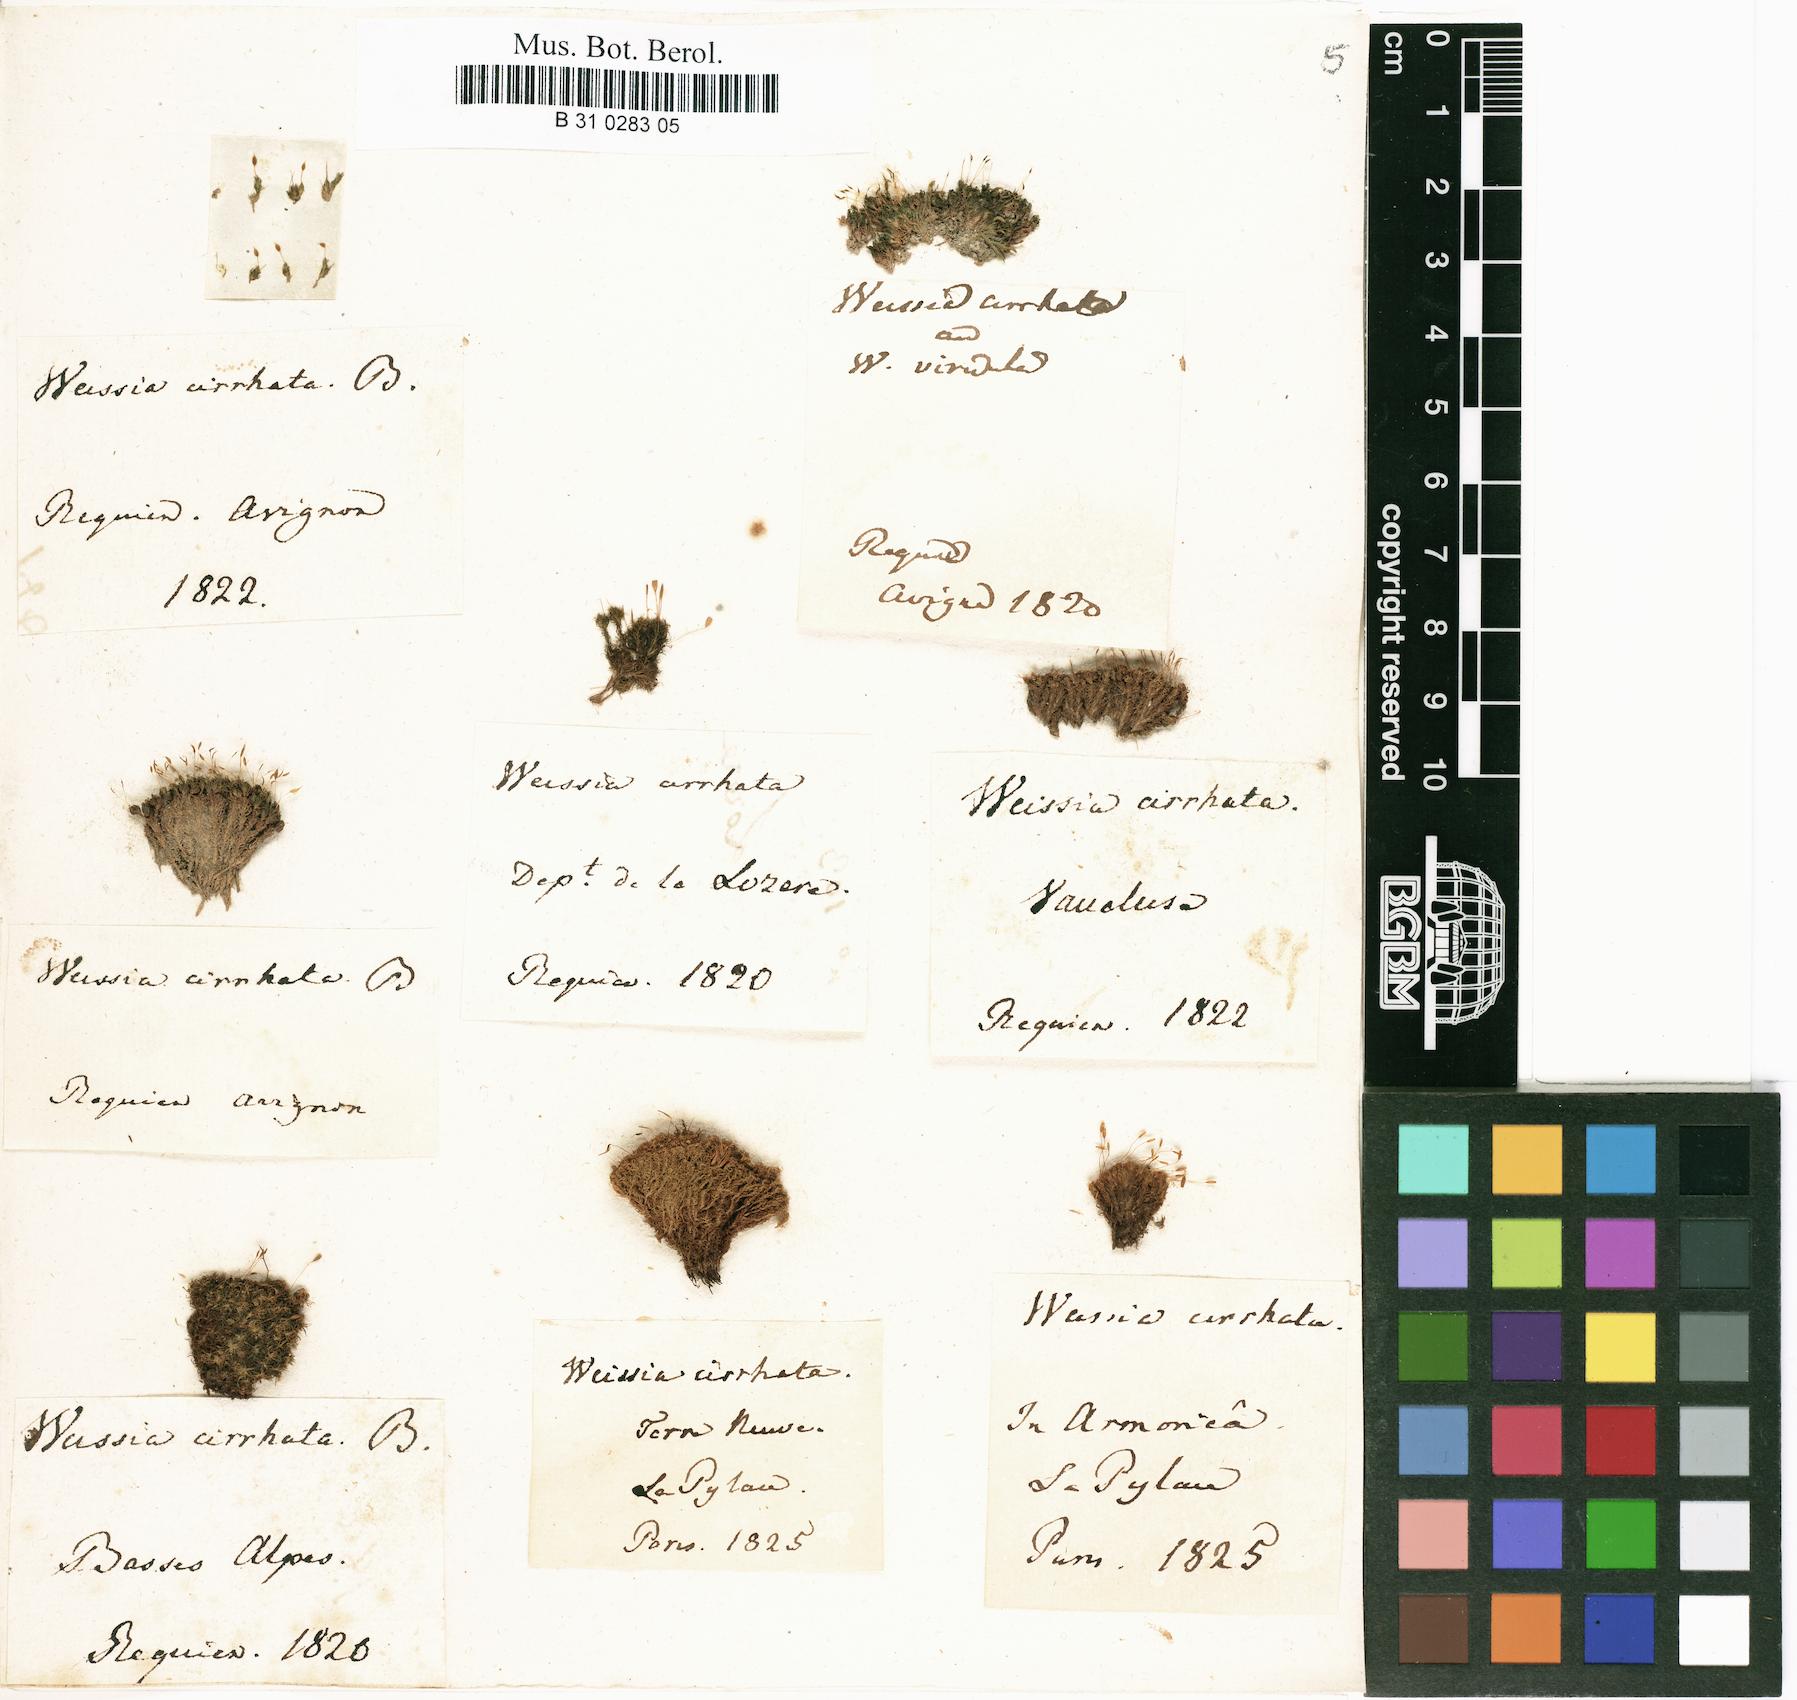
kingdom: Plantae
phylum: Bryophyta
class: Bryopsida
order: Dicranales
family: Rhabdoweisiaceae
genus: Dicranoweisia
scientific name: Dicranoweisia cirrata
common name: Common pincushion
